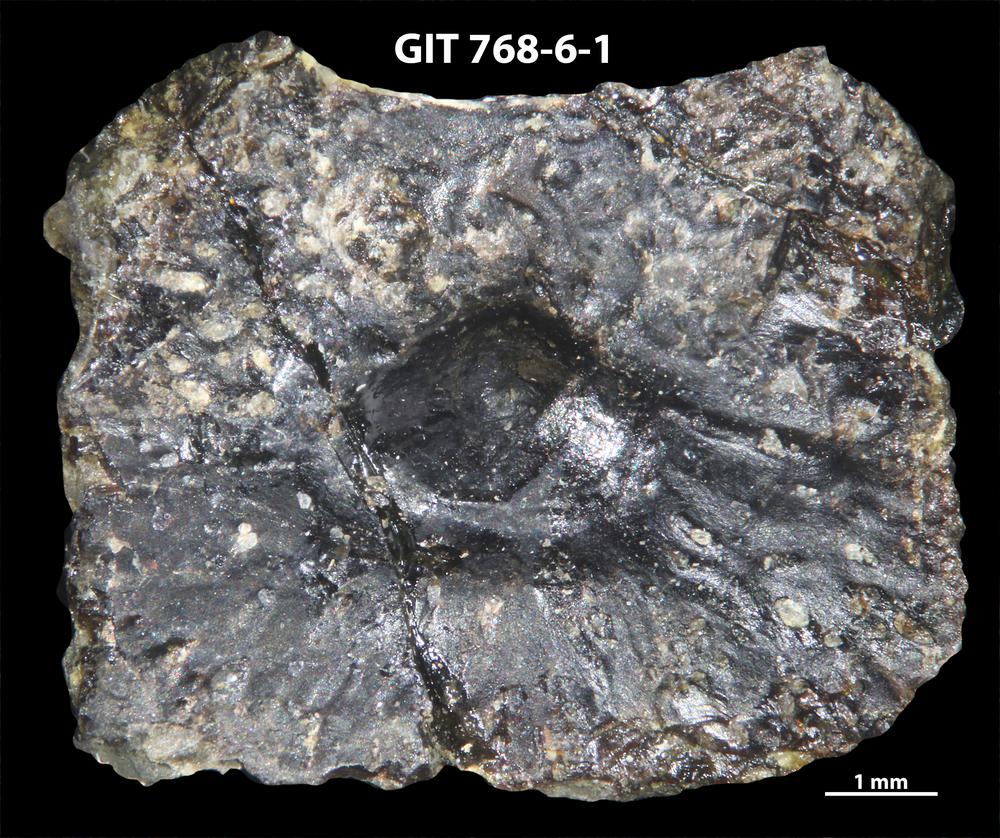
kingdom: Animalia
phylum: Chordata
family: Holonematidae
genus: Groenlandaspis
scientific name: Groenlandaspis
